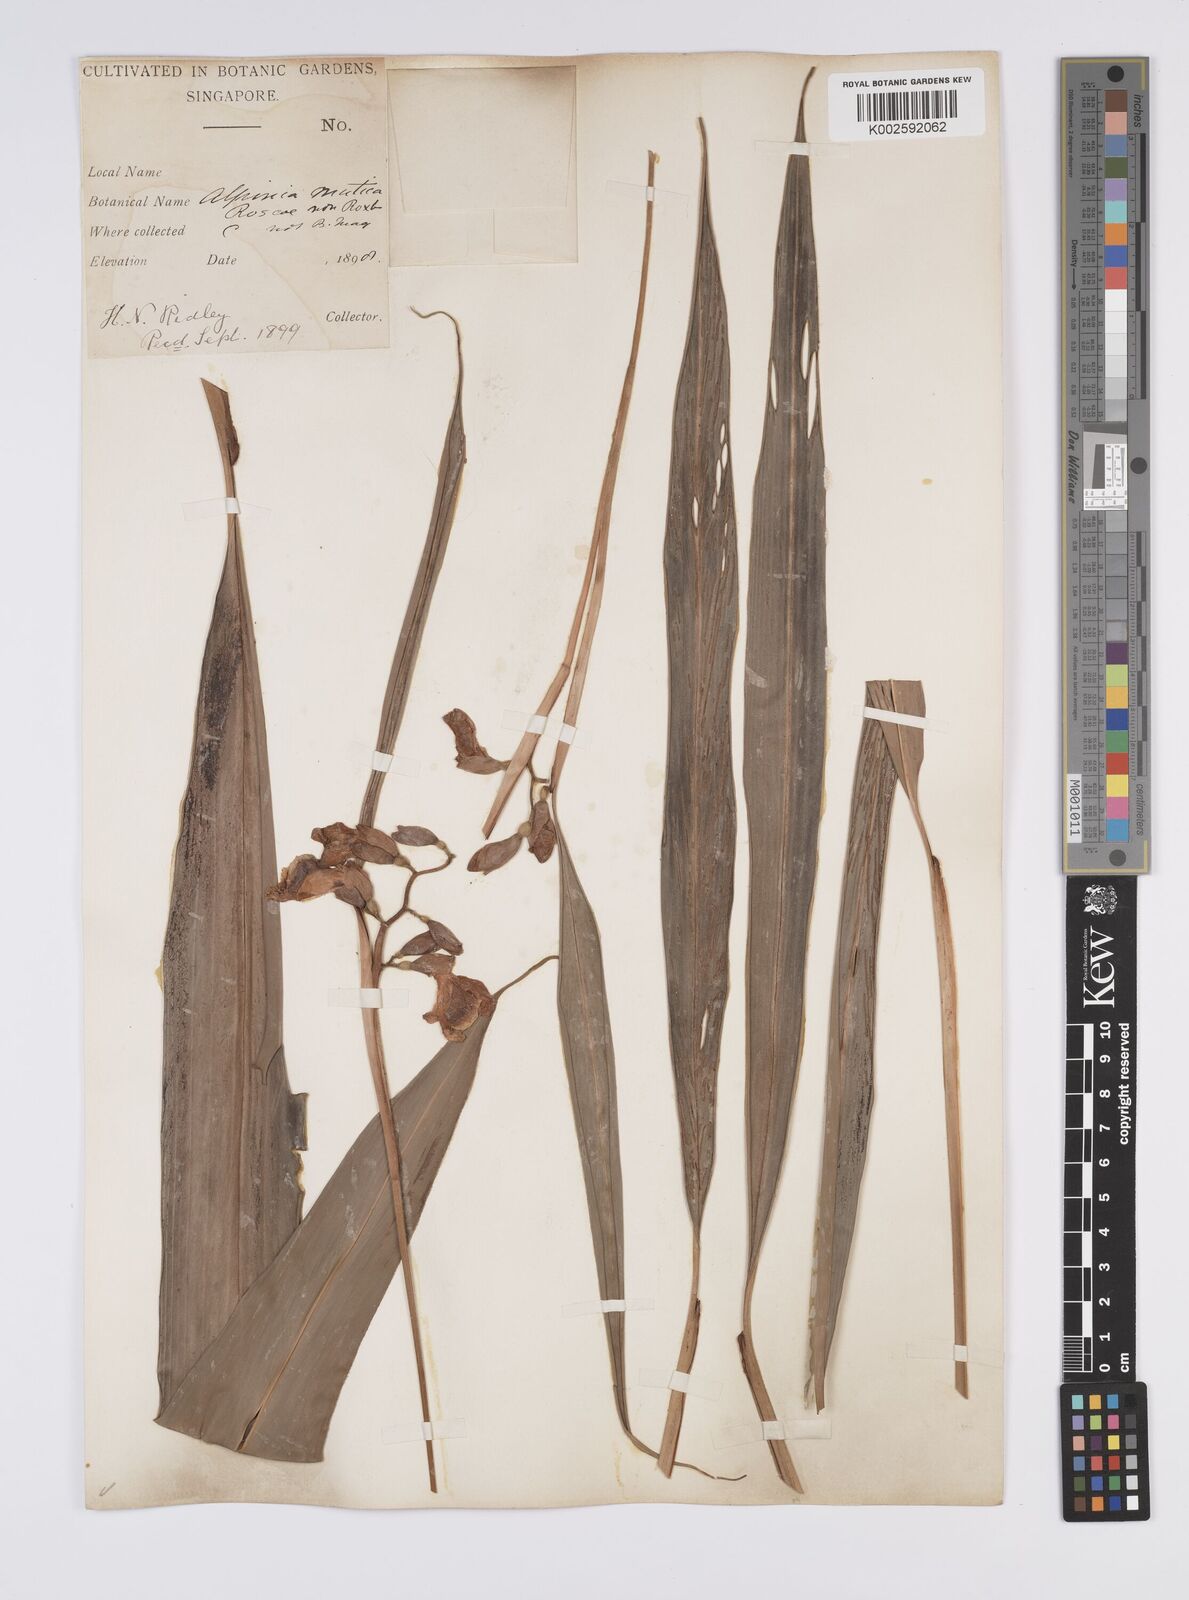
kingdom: Plantae
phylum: Tracheophyta
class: Liliopsida
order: Zingiberales
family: Zingiberaceae
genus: Alpinia
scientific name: Alpinia mutica
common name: Small shell ginger
